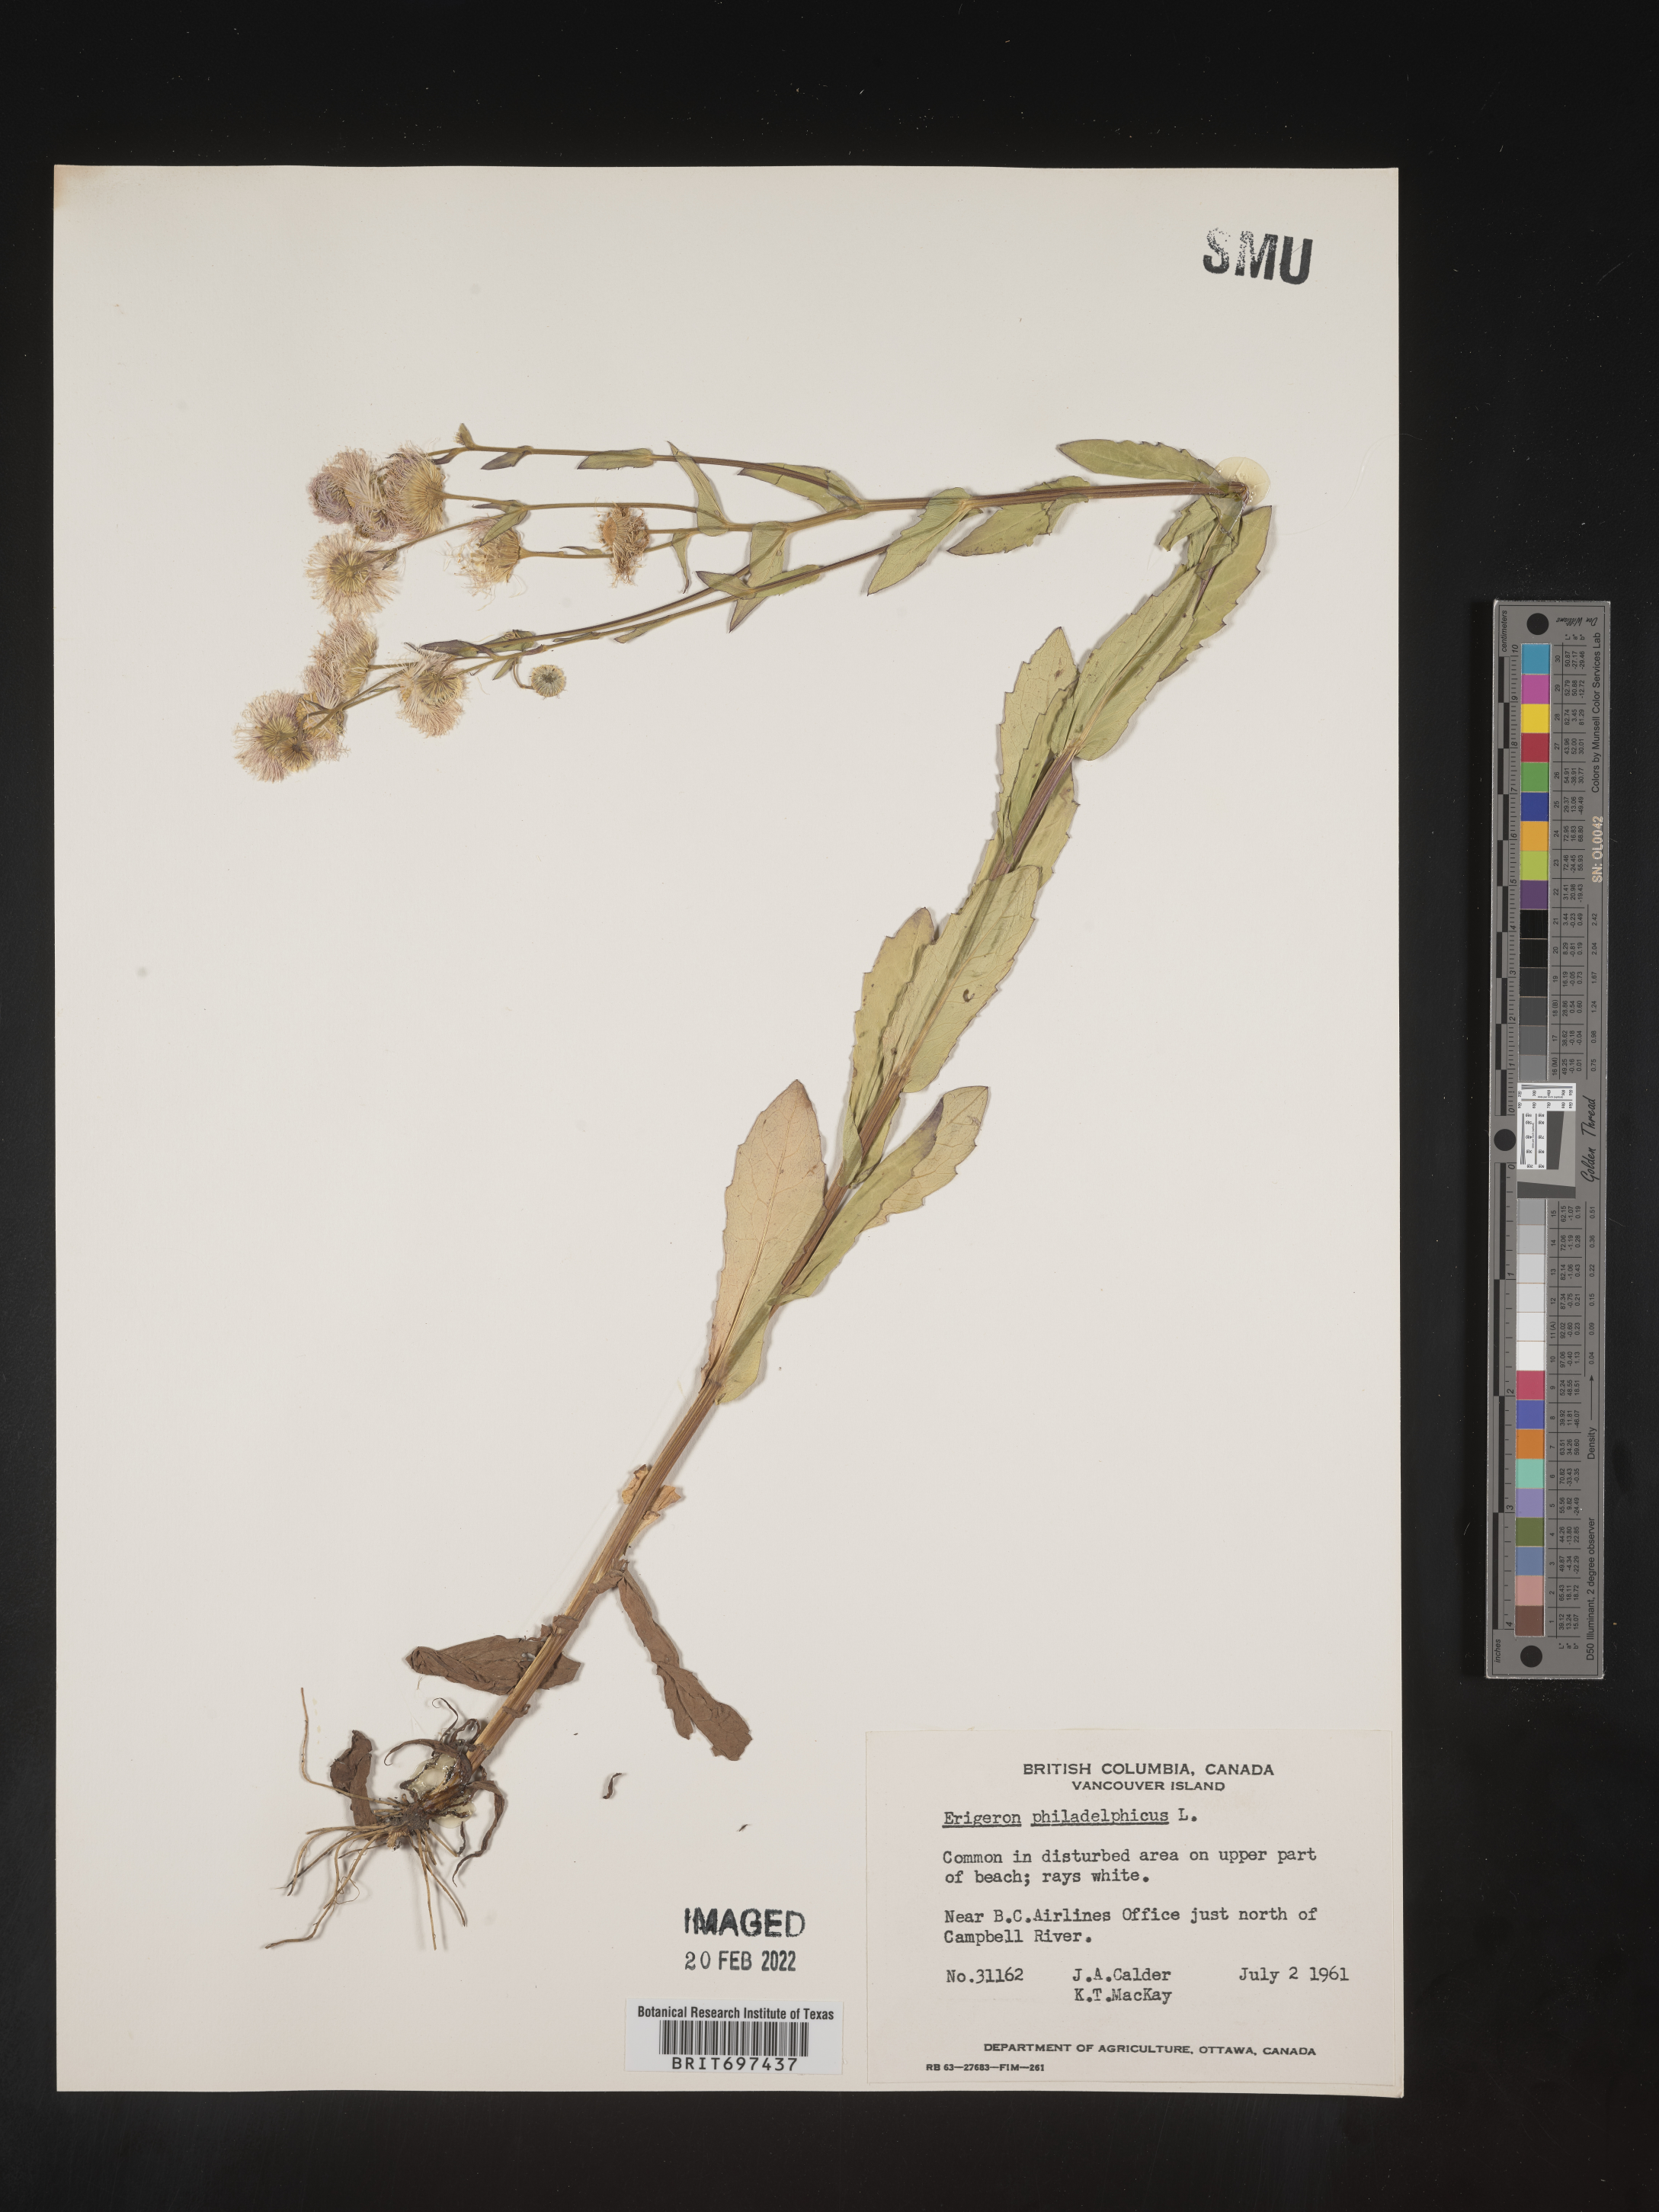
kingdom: Plantae
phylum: Tracheophyta
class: Magnoliopsida
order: Asterales
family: Asteraceae
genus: Erigeron
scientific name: Erigeron philadelphicus
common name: Robin's-plantain
